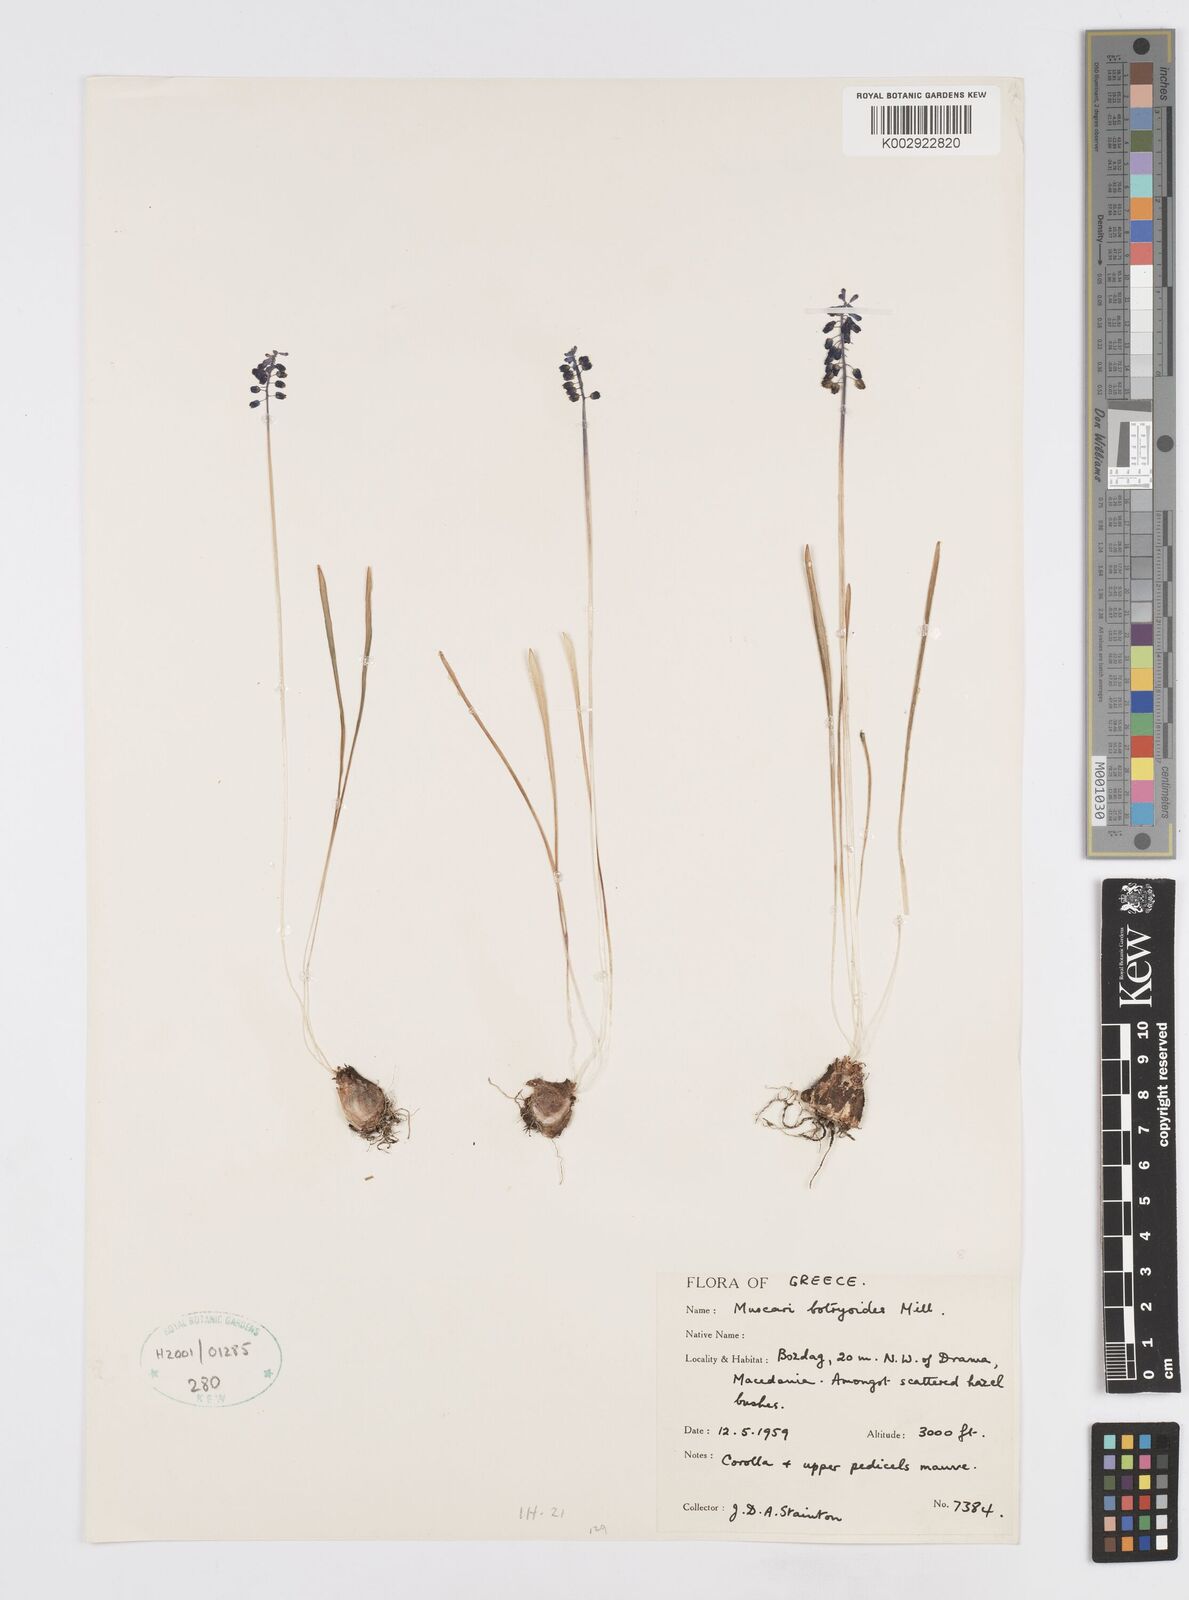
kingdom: Plantae
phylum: Tracheophyta
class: Liliopsida
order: Asparagales
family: Asparagaceae
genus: Muscari
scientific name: Muscari botryoides
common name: Compact grape-hyacinth
